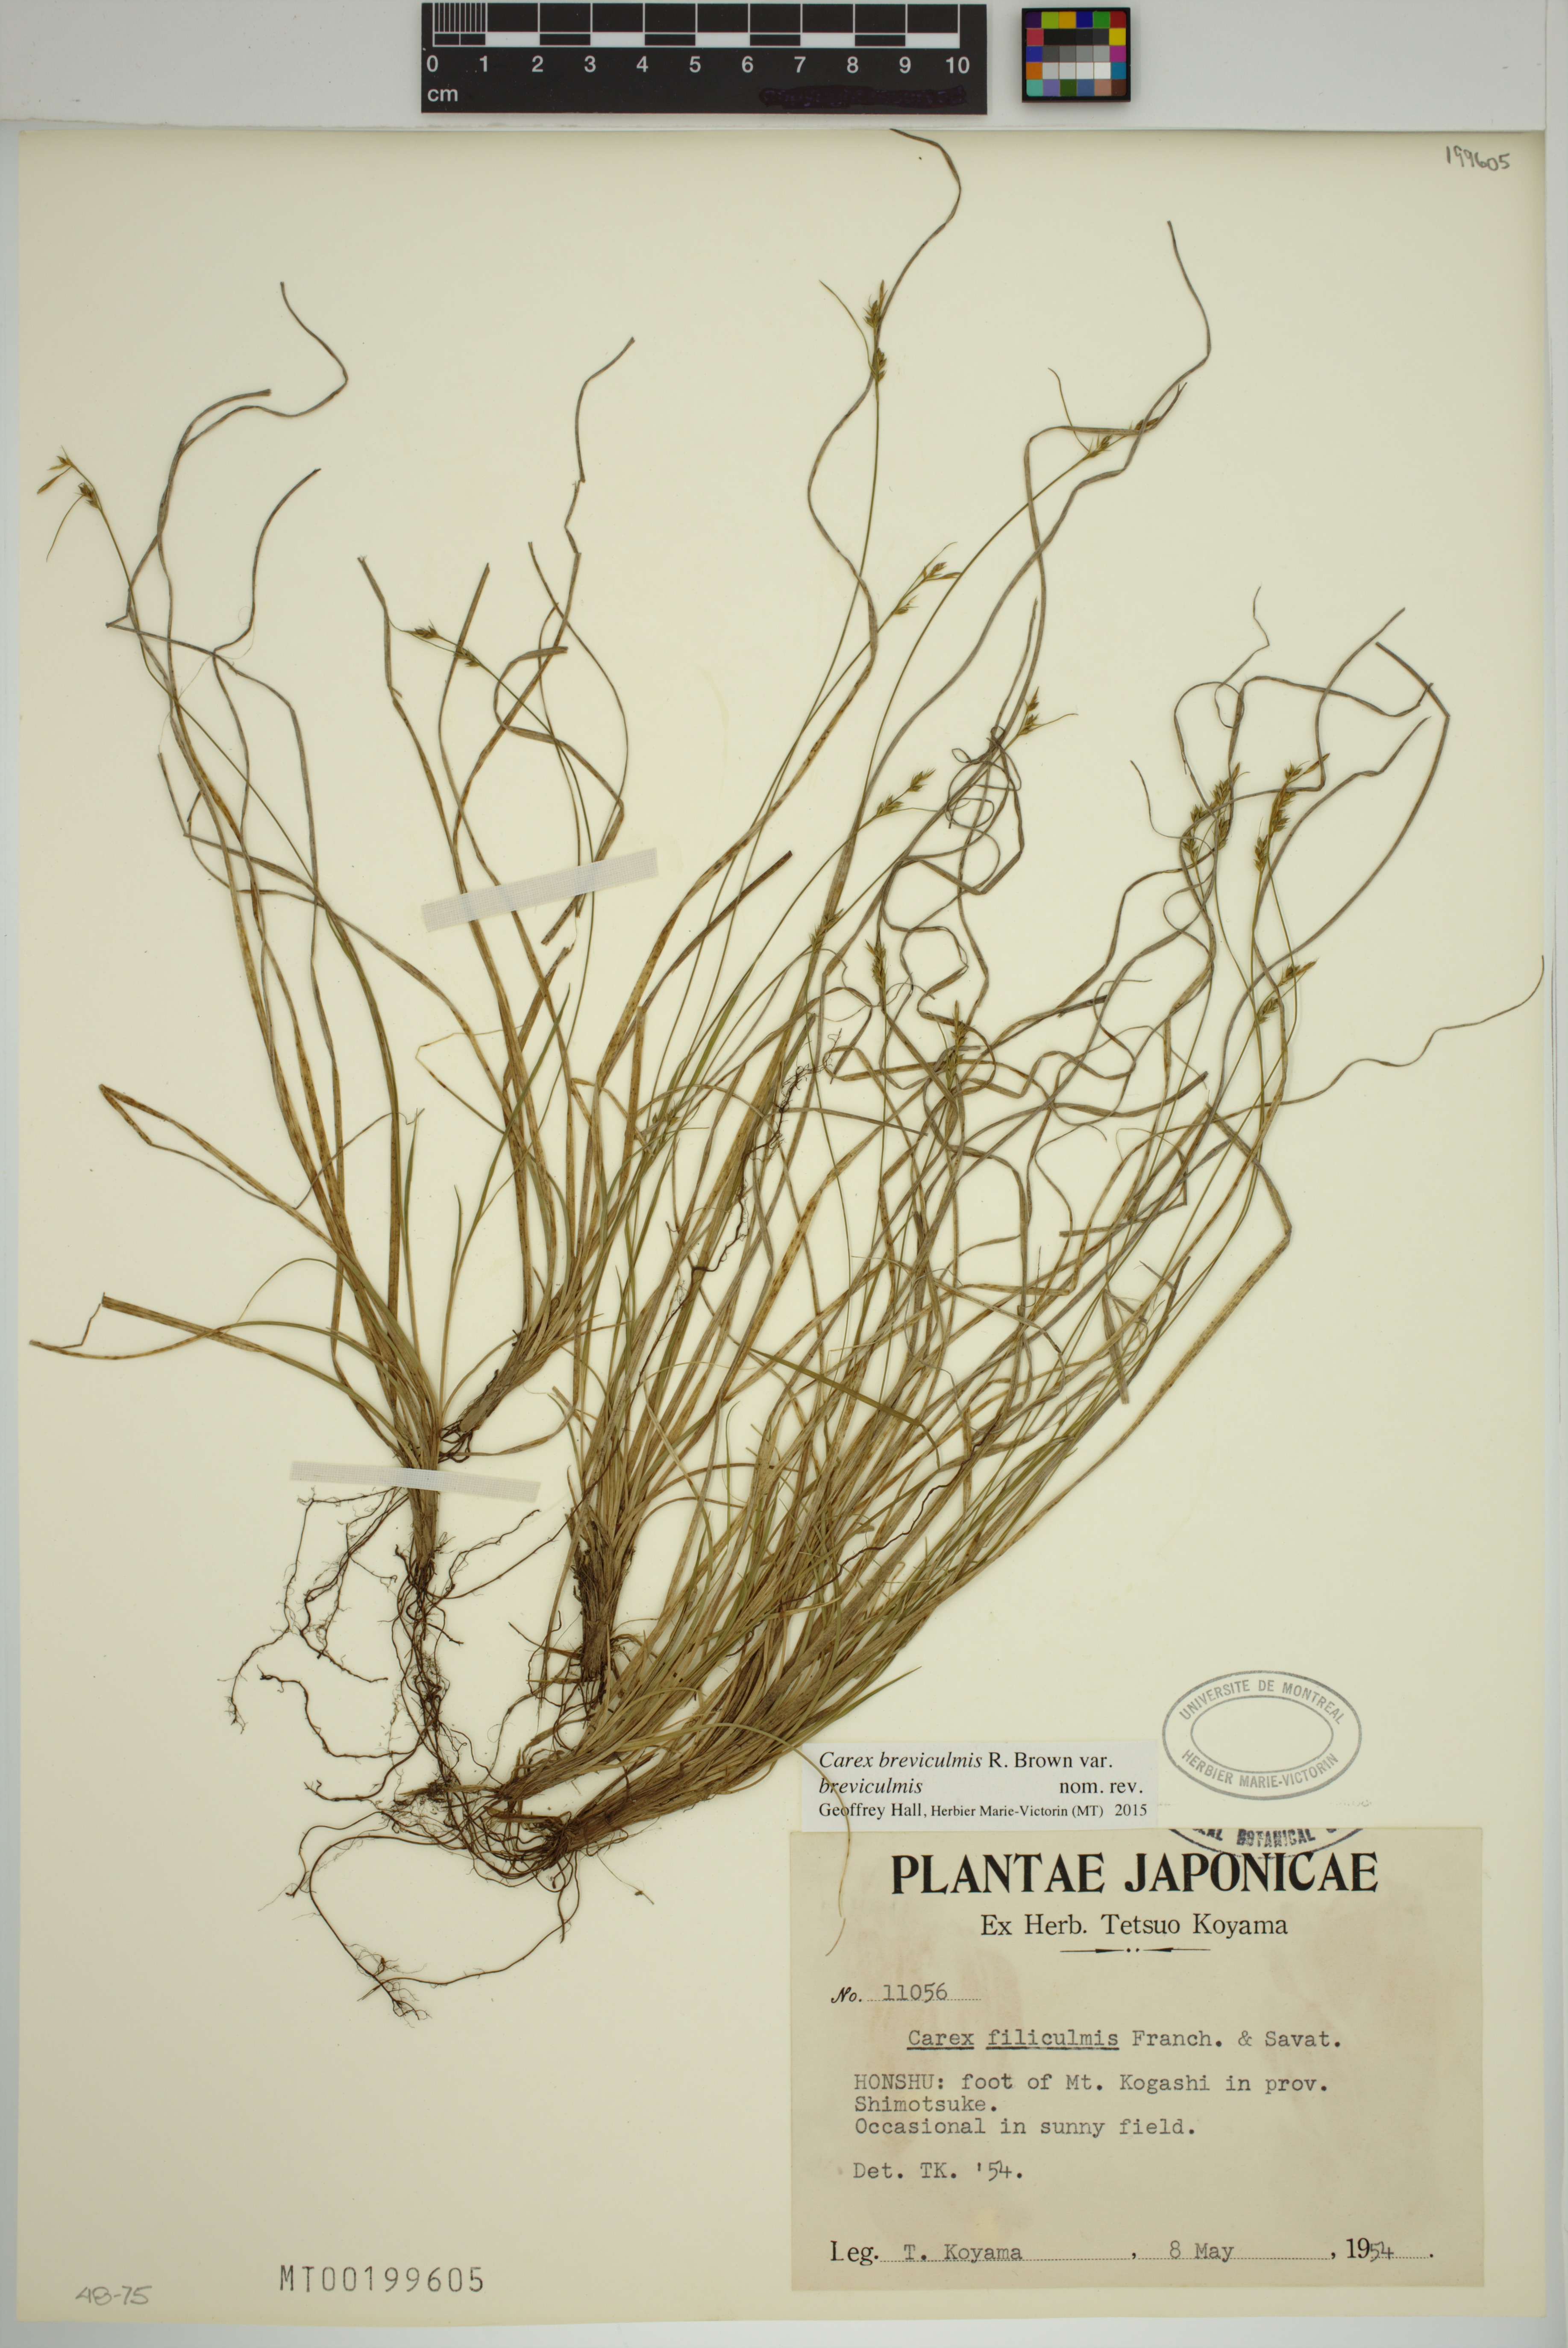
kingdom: Plantae
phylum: Tracheophyta
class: Liliopsida
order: Poales
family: Cyperaceae
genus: Carex
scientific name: Carex breviculmis
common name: Asian shortstem sedge
